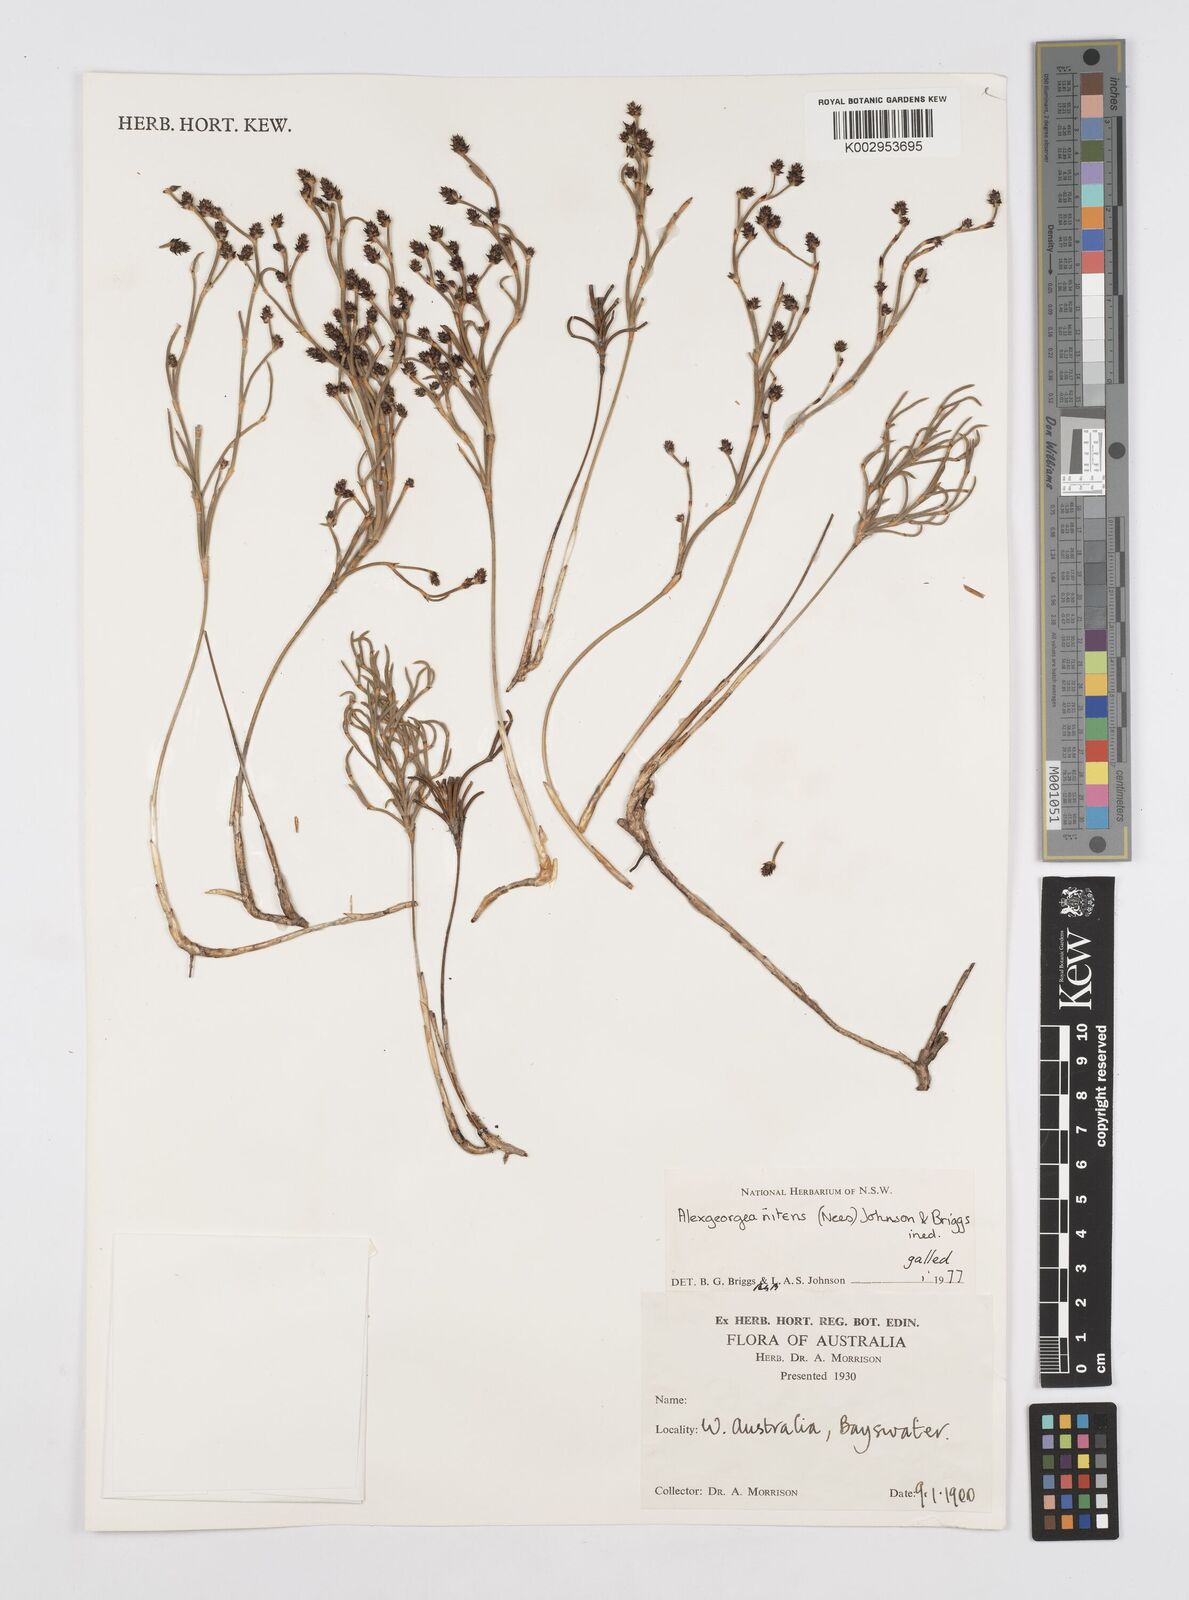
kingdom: Plantae
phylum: Tracheophyta
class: Liliopsida
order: Poales
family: Restionaceae
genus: Alexgeorgea
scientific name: Alexgeorgea nitens
